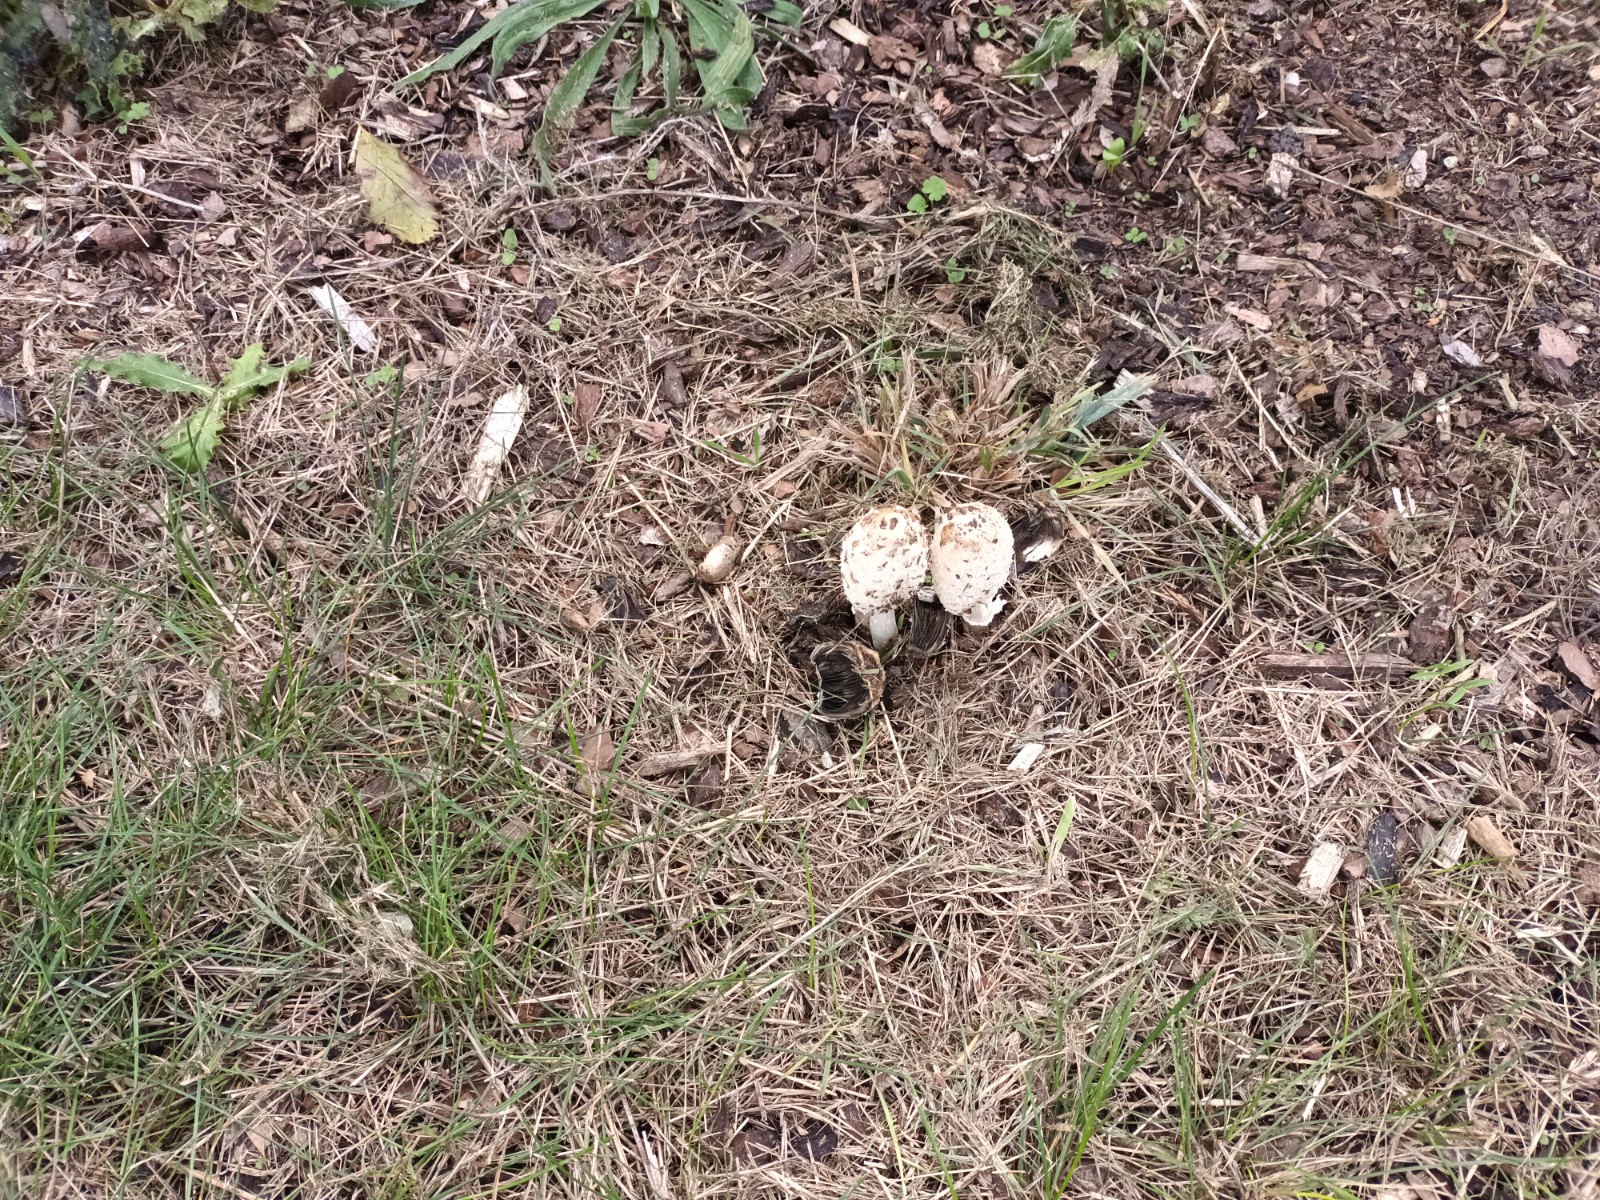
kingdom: Fungi
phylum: Basidiomycota
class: Agaricomycetes
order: Agaricales
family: Agaricaceae
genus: Coprinus
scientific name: Coprinus comatus
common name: stor parykhat
